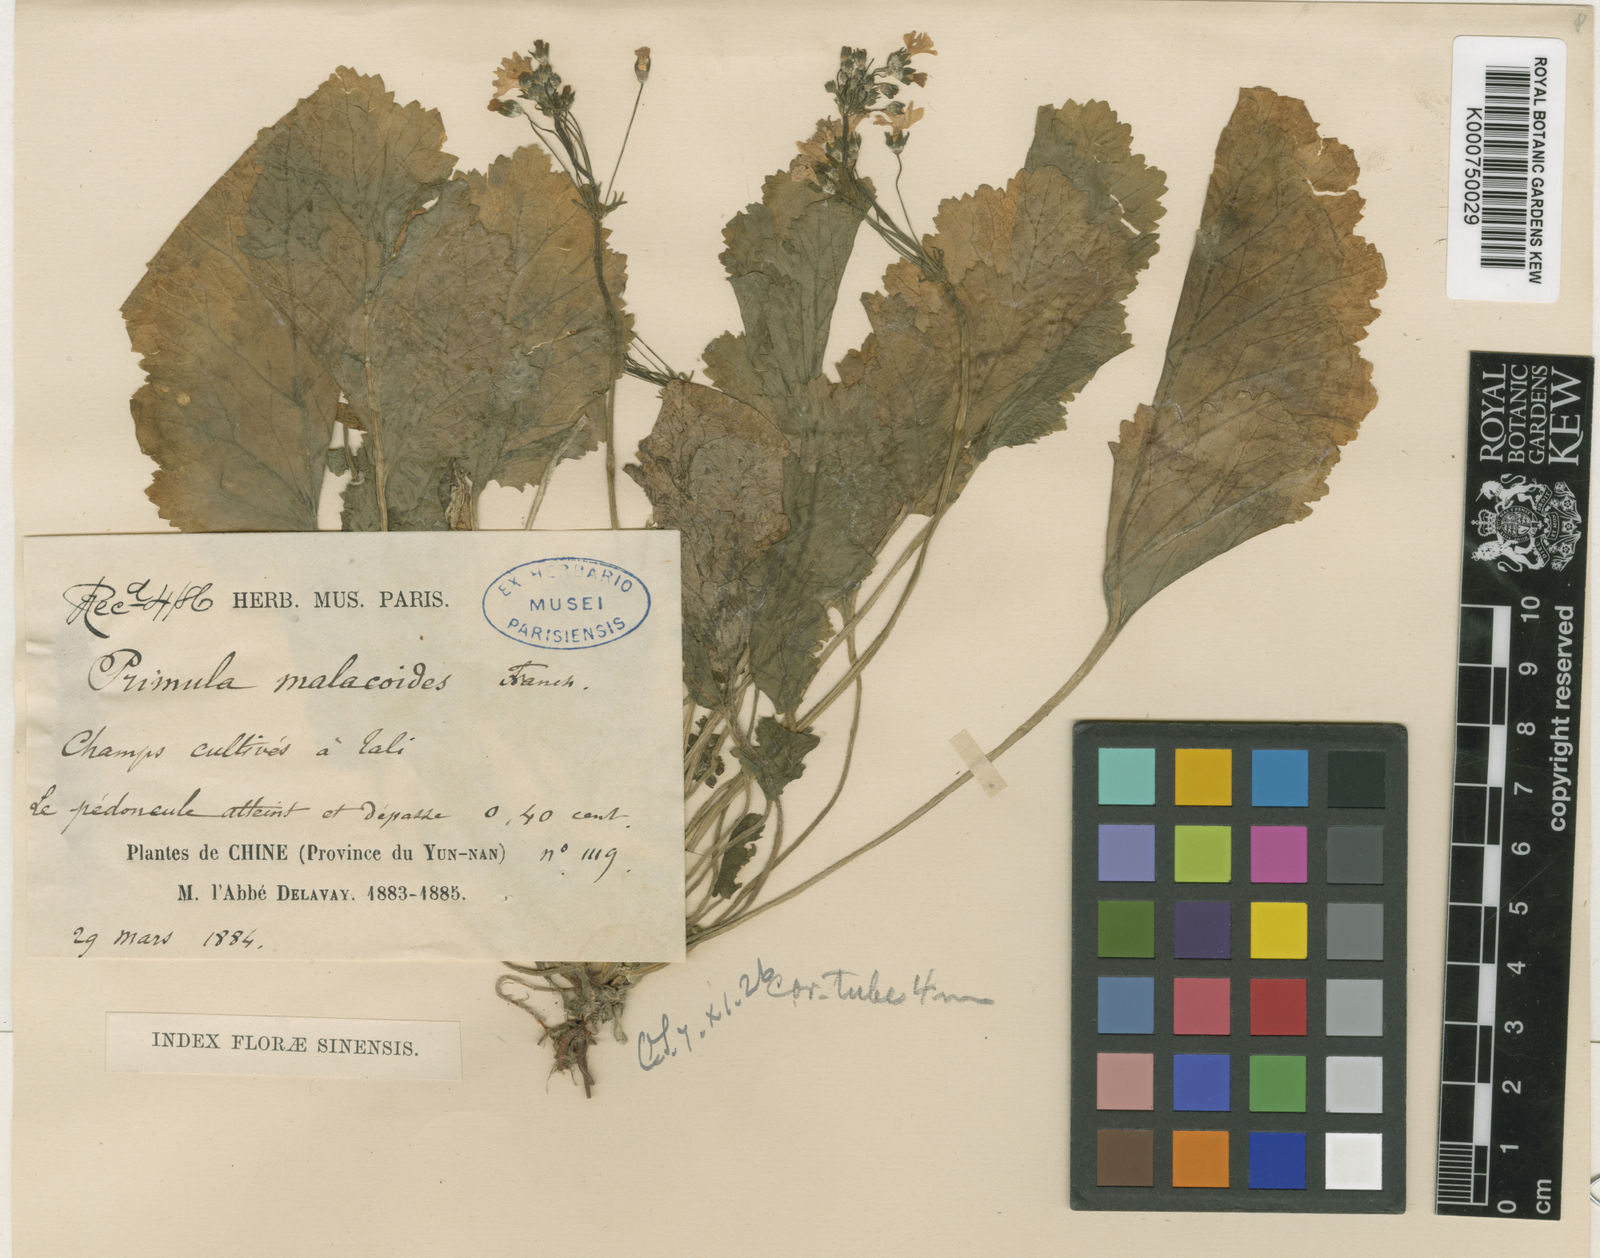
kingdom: Plantae
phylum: Tracheophyta
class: Magnoliopsida
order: Ericales
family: Primulaceae
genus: Primula
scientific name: Primula malacoides
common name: Baby primrose
